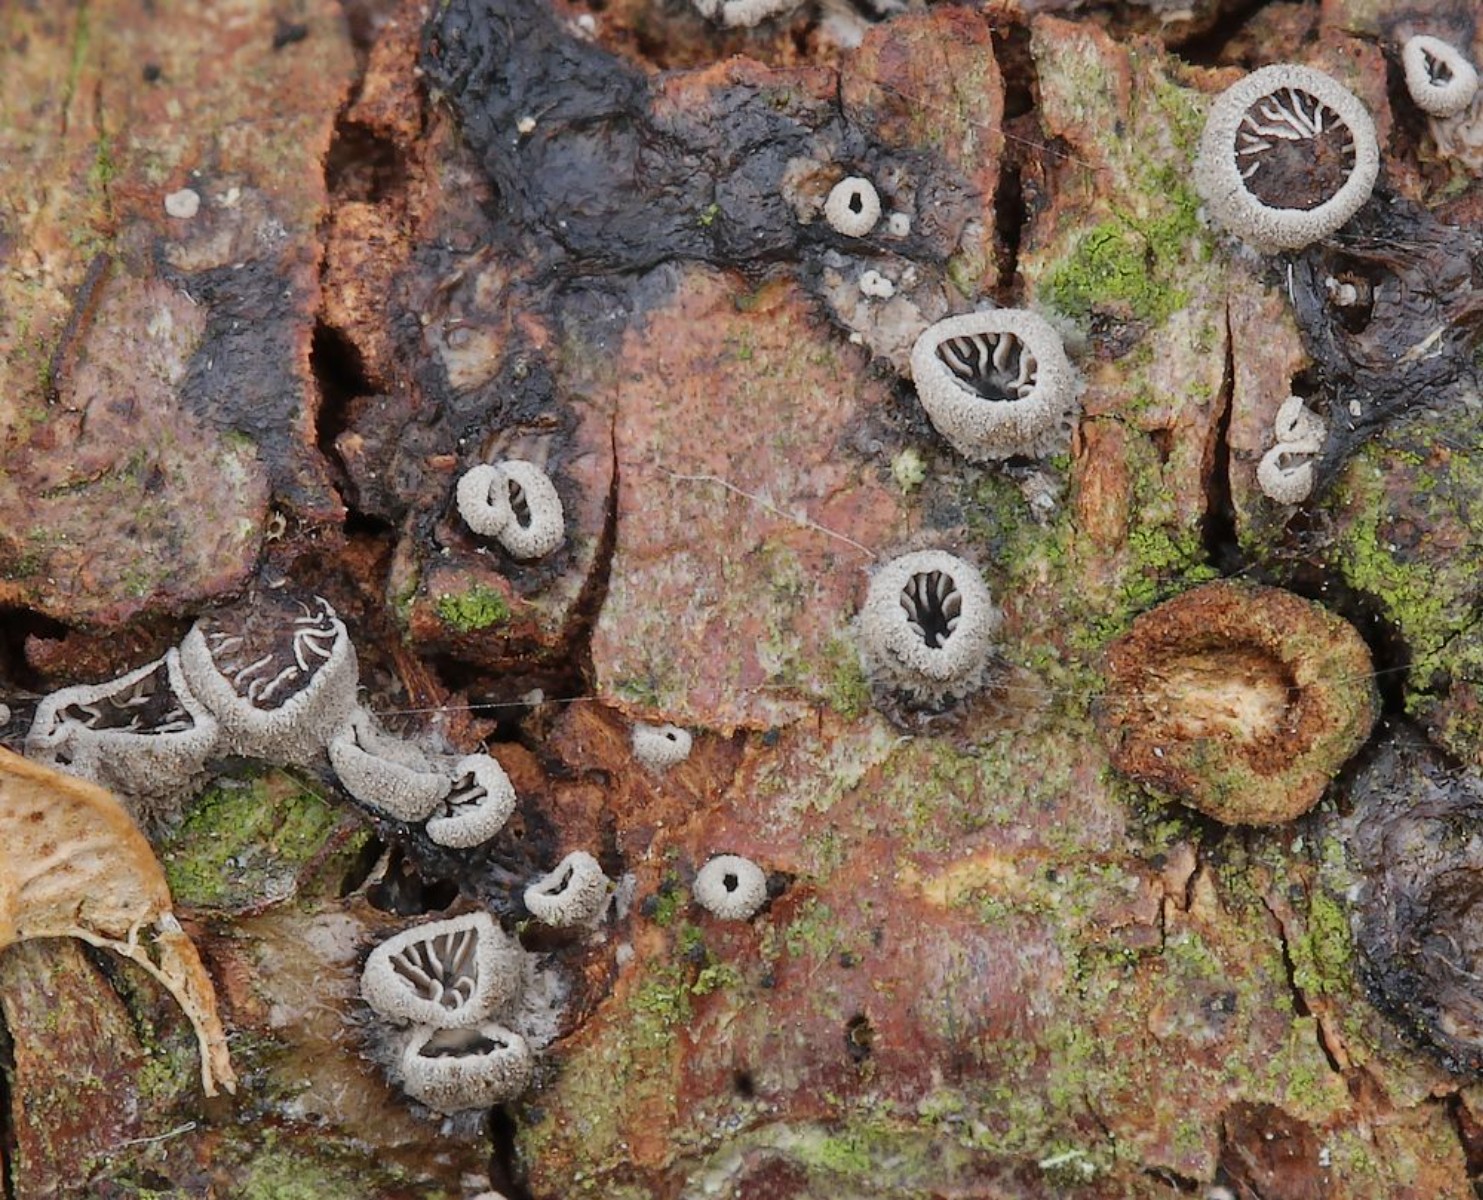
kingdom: Fungi
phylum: Basidiomycota
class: Agaricomycetes
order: Agaricales
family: Pleurotaceae
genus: Resupinatus
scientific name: Resupinatus applicatus
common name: lysfiltet barkhat
